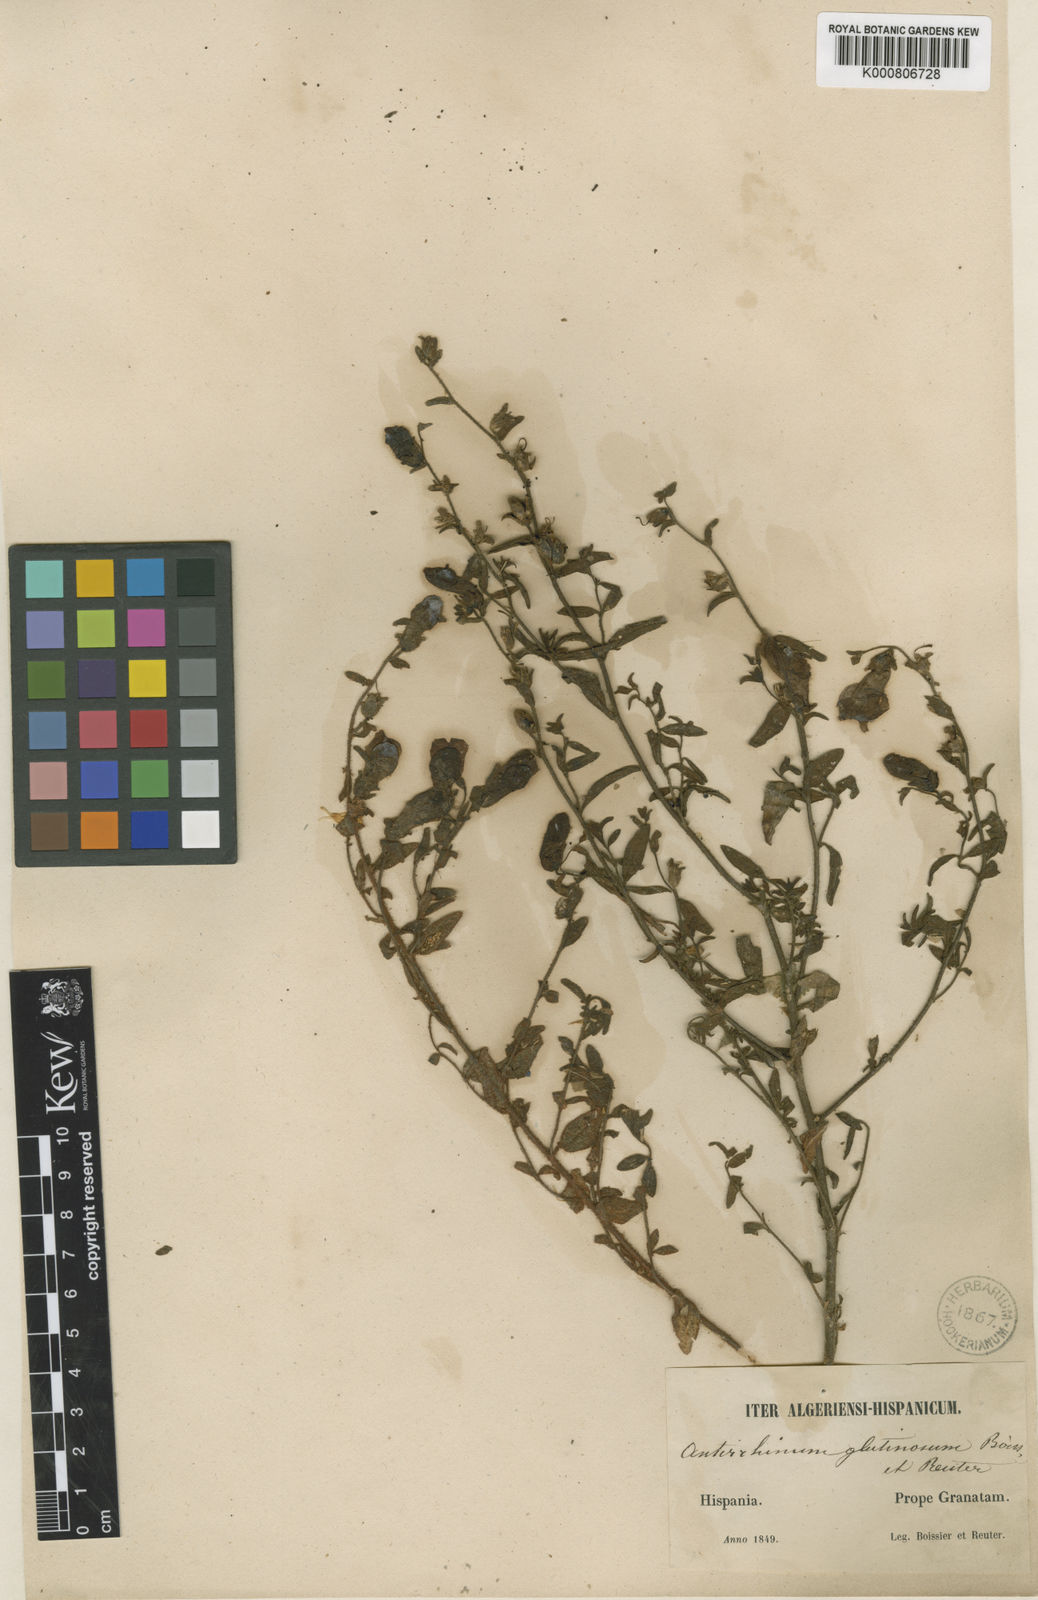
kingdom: Plantae
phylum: Tracheophyta
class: Magnoliopsida
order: Lamiales
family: Plantaginaceae
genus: Antirrhinum
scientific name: Antirrhinum hispanicum
